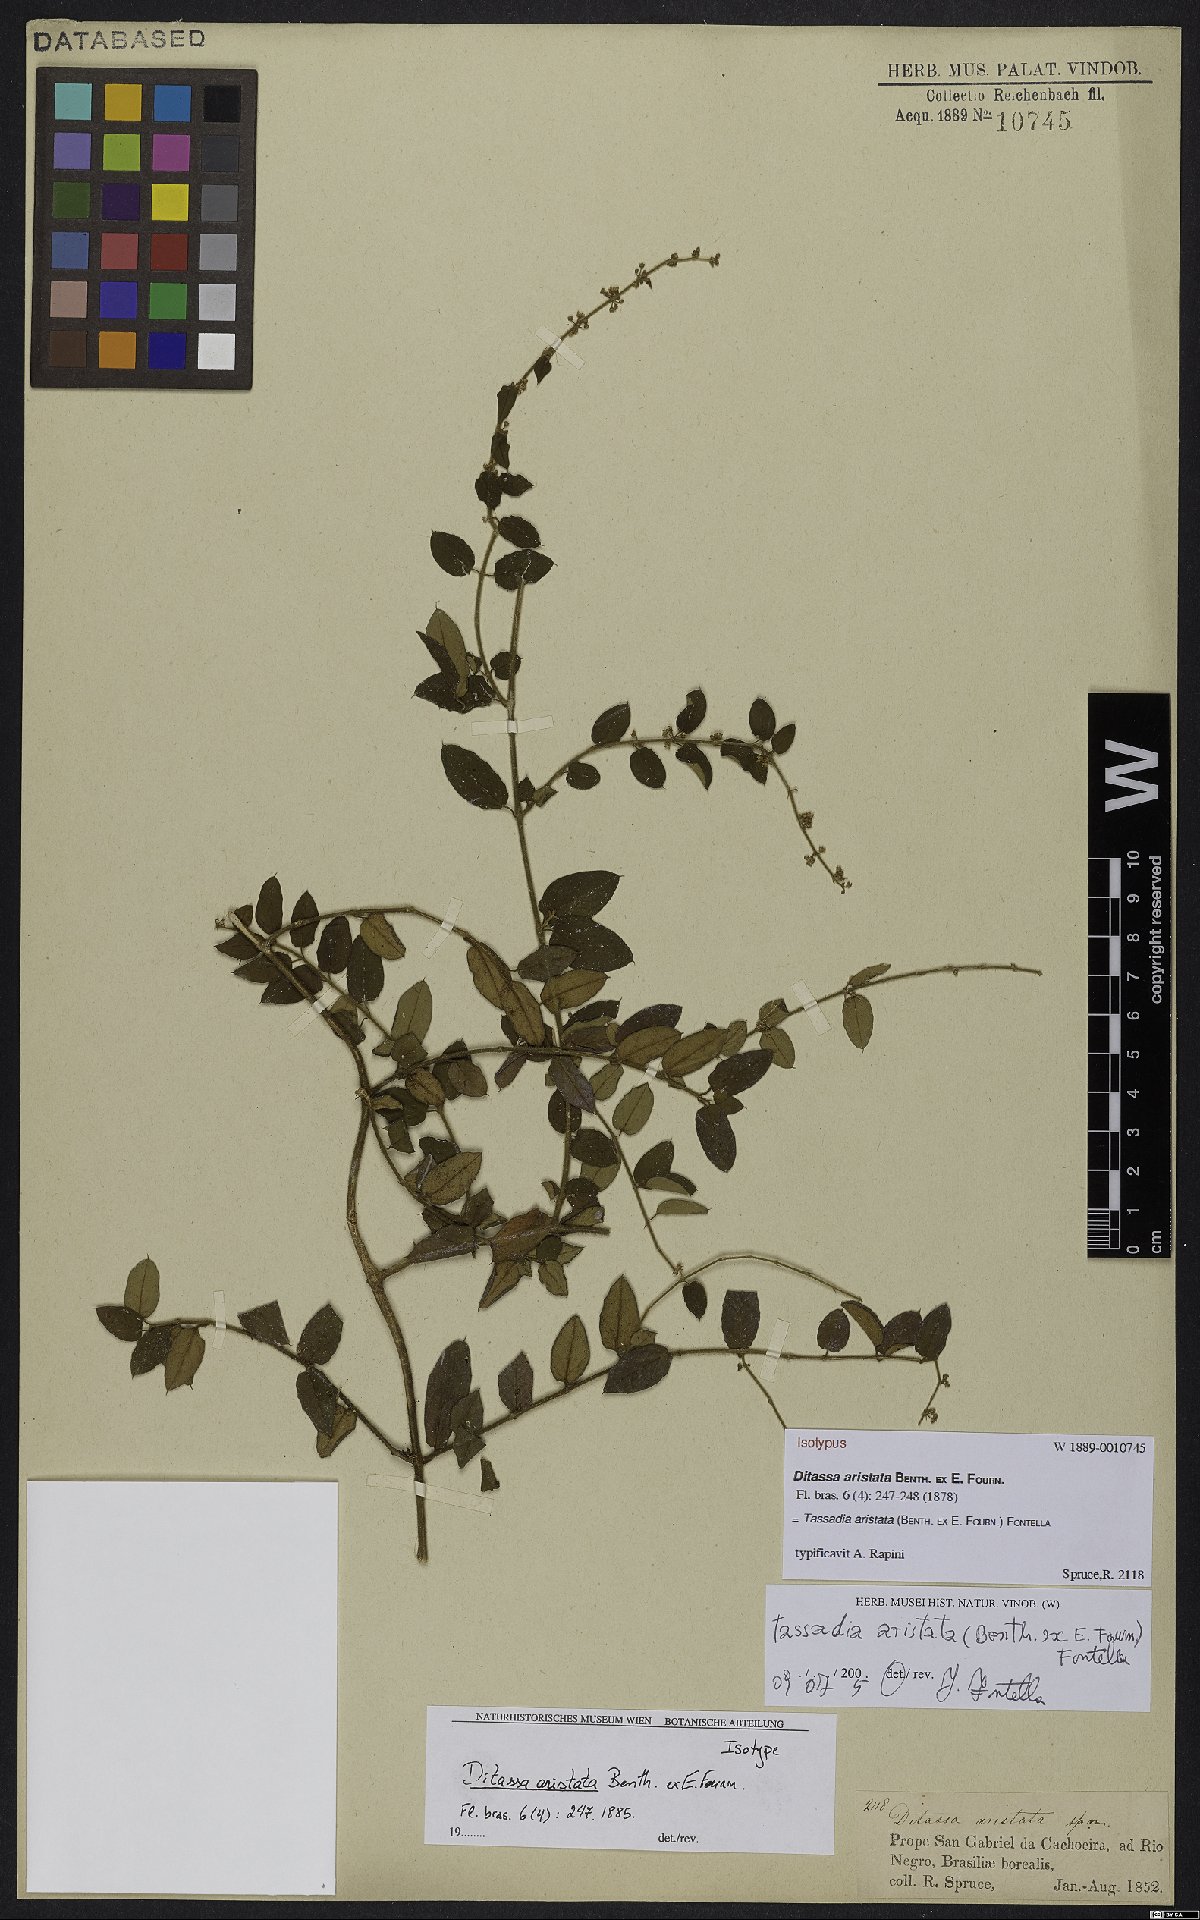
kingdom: Plantae
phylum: Tracheophyta
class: Magnoliopsida
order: Gentianales
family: Apocynaceae
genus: Tassadia
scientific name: Tassadia aristata
